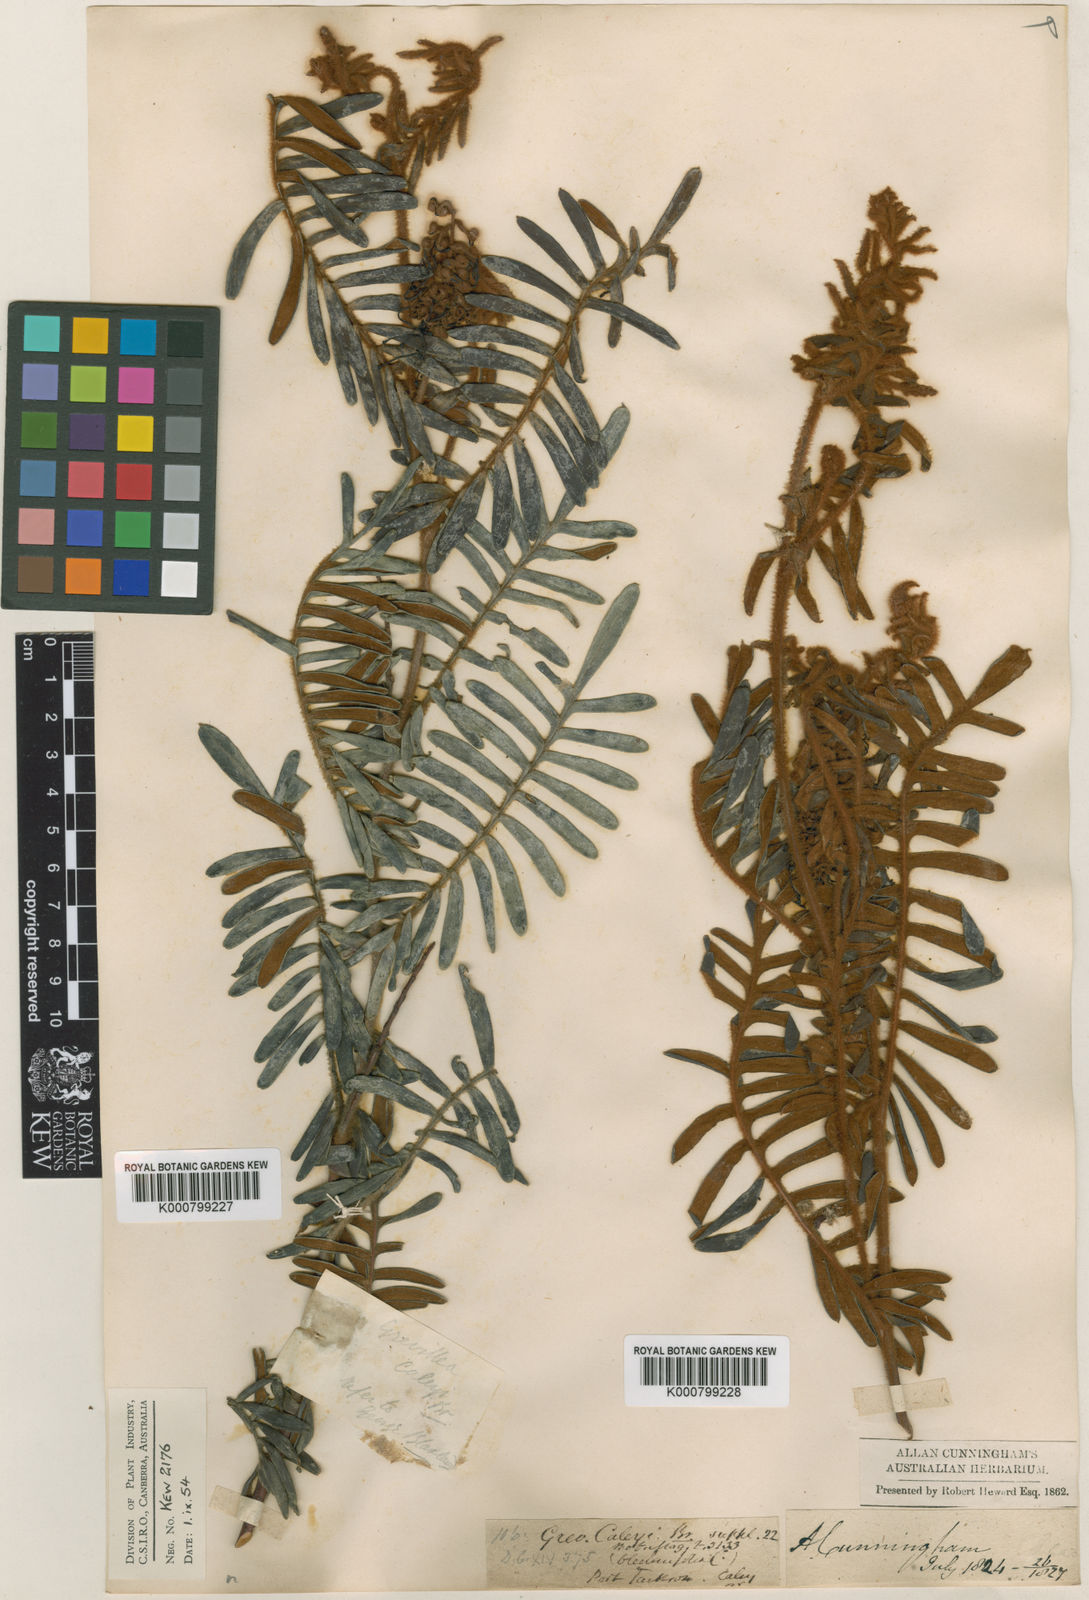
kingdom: Plantae
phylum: Tracheophyta
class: Magnoliopsida
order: Proteales
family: Proteaceae
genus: Grevillea
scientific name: Grevillea caleyi
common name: Caley's grevillea
